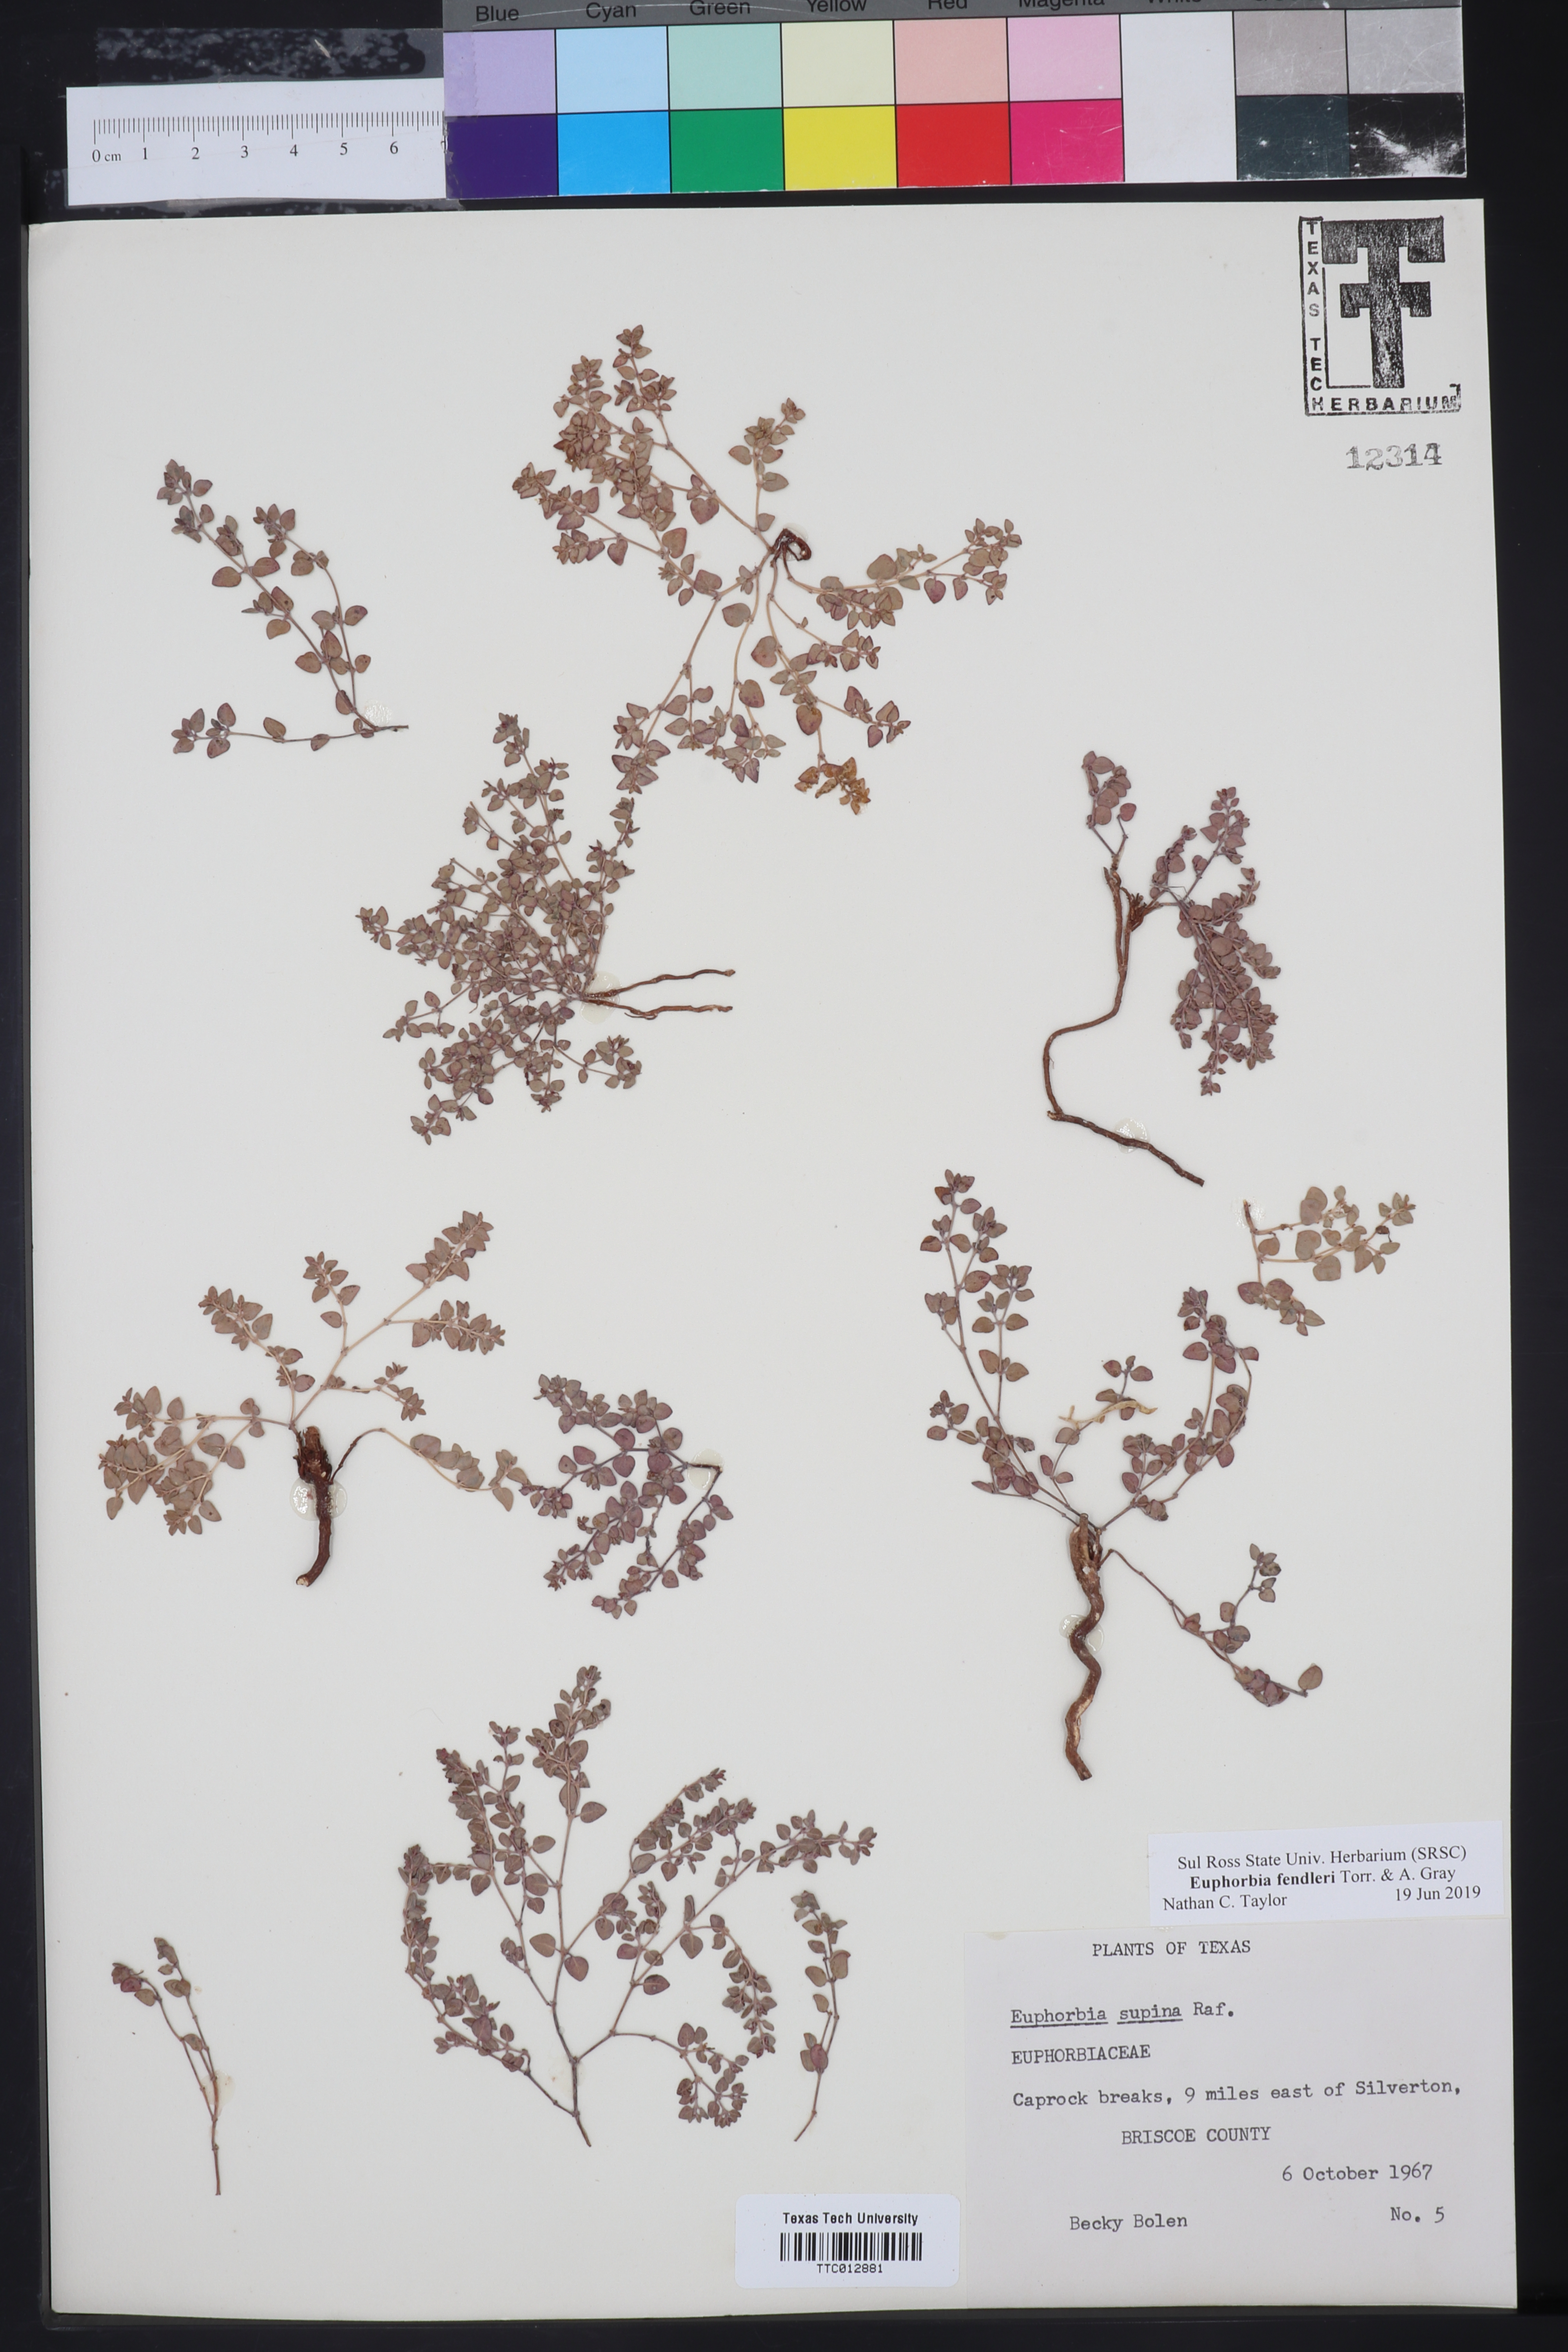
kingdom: Plantae
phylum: Tracheophyta
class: Magnoliopsida
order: Malpighiales
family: Euphorbiaceae
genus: Euphorbia
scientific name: Euphorbia fendleri
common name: Fendler's euphorbia
